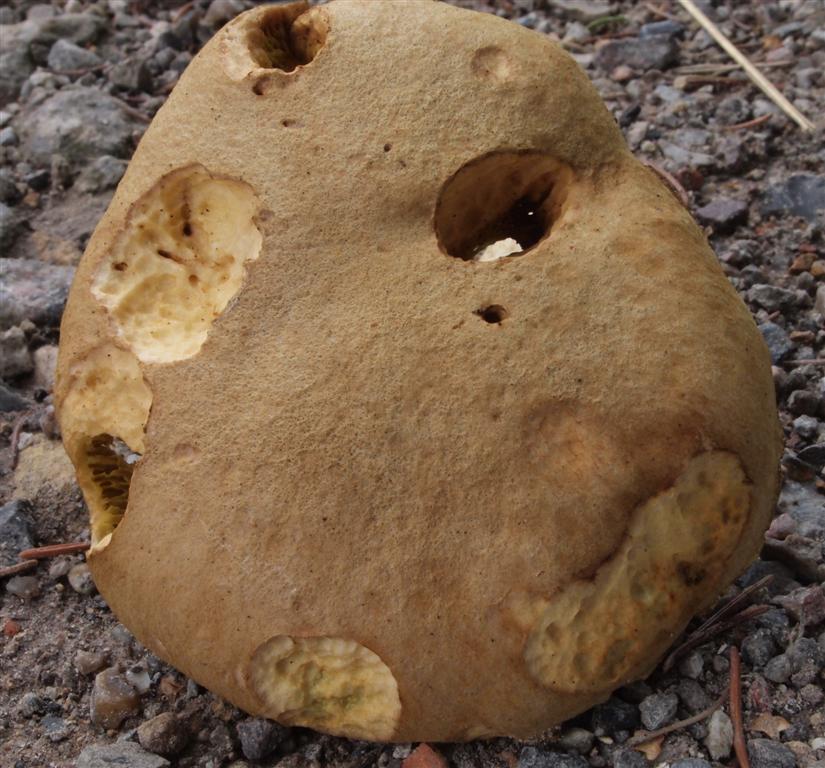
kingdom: Fungi
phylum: Basidiomycota
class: Agaricomycetes
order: Boletales
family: Boletaceae
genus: Xerocomus
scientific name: Xerocomus ferrugineus
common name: vaskeskinds-rørhat
